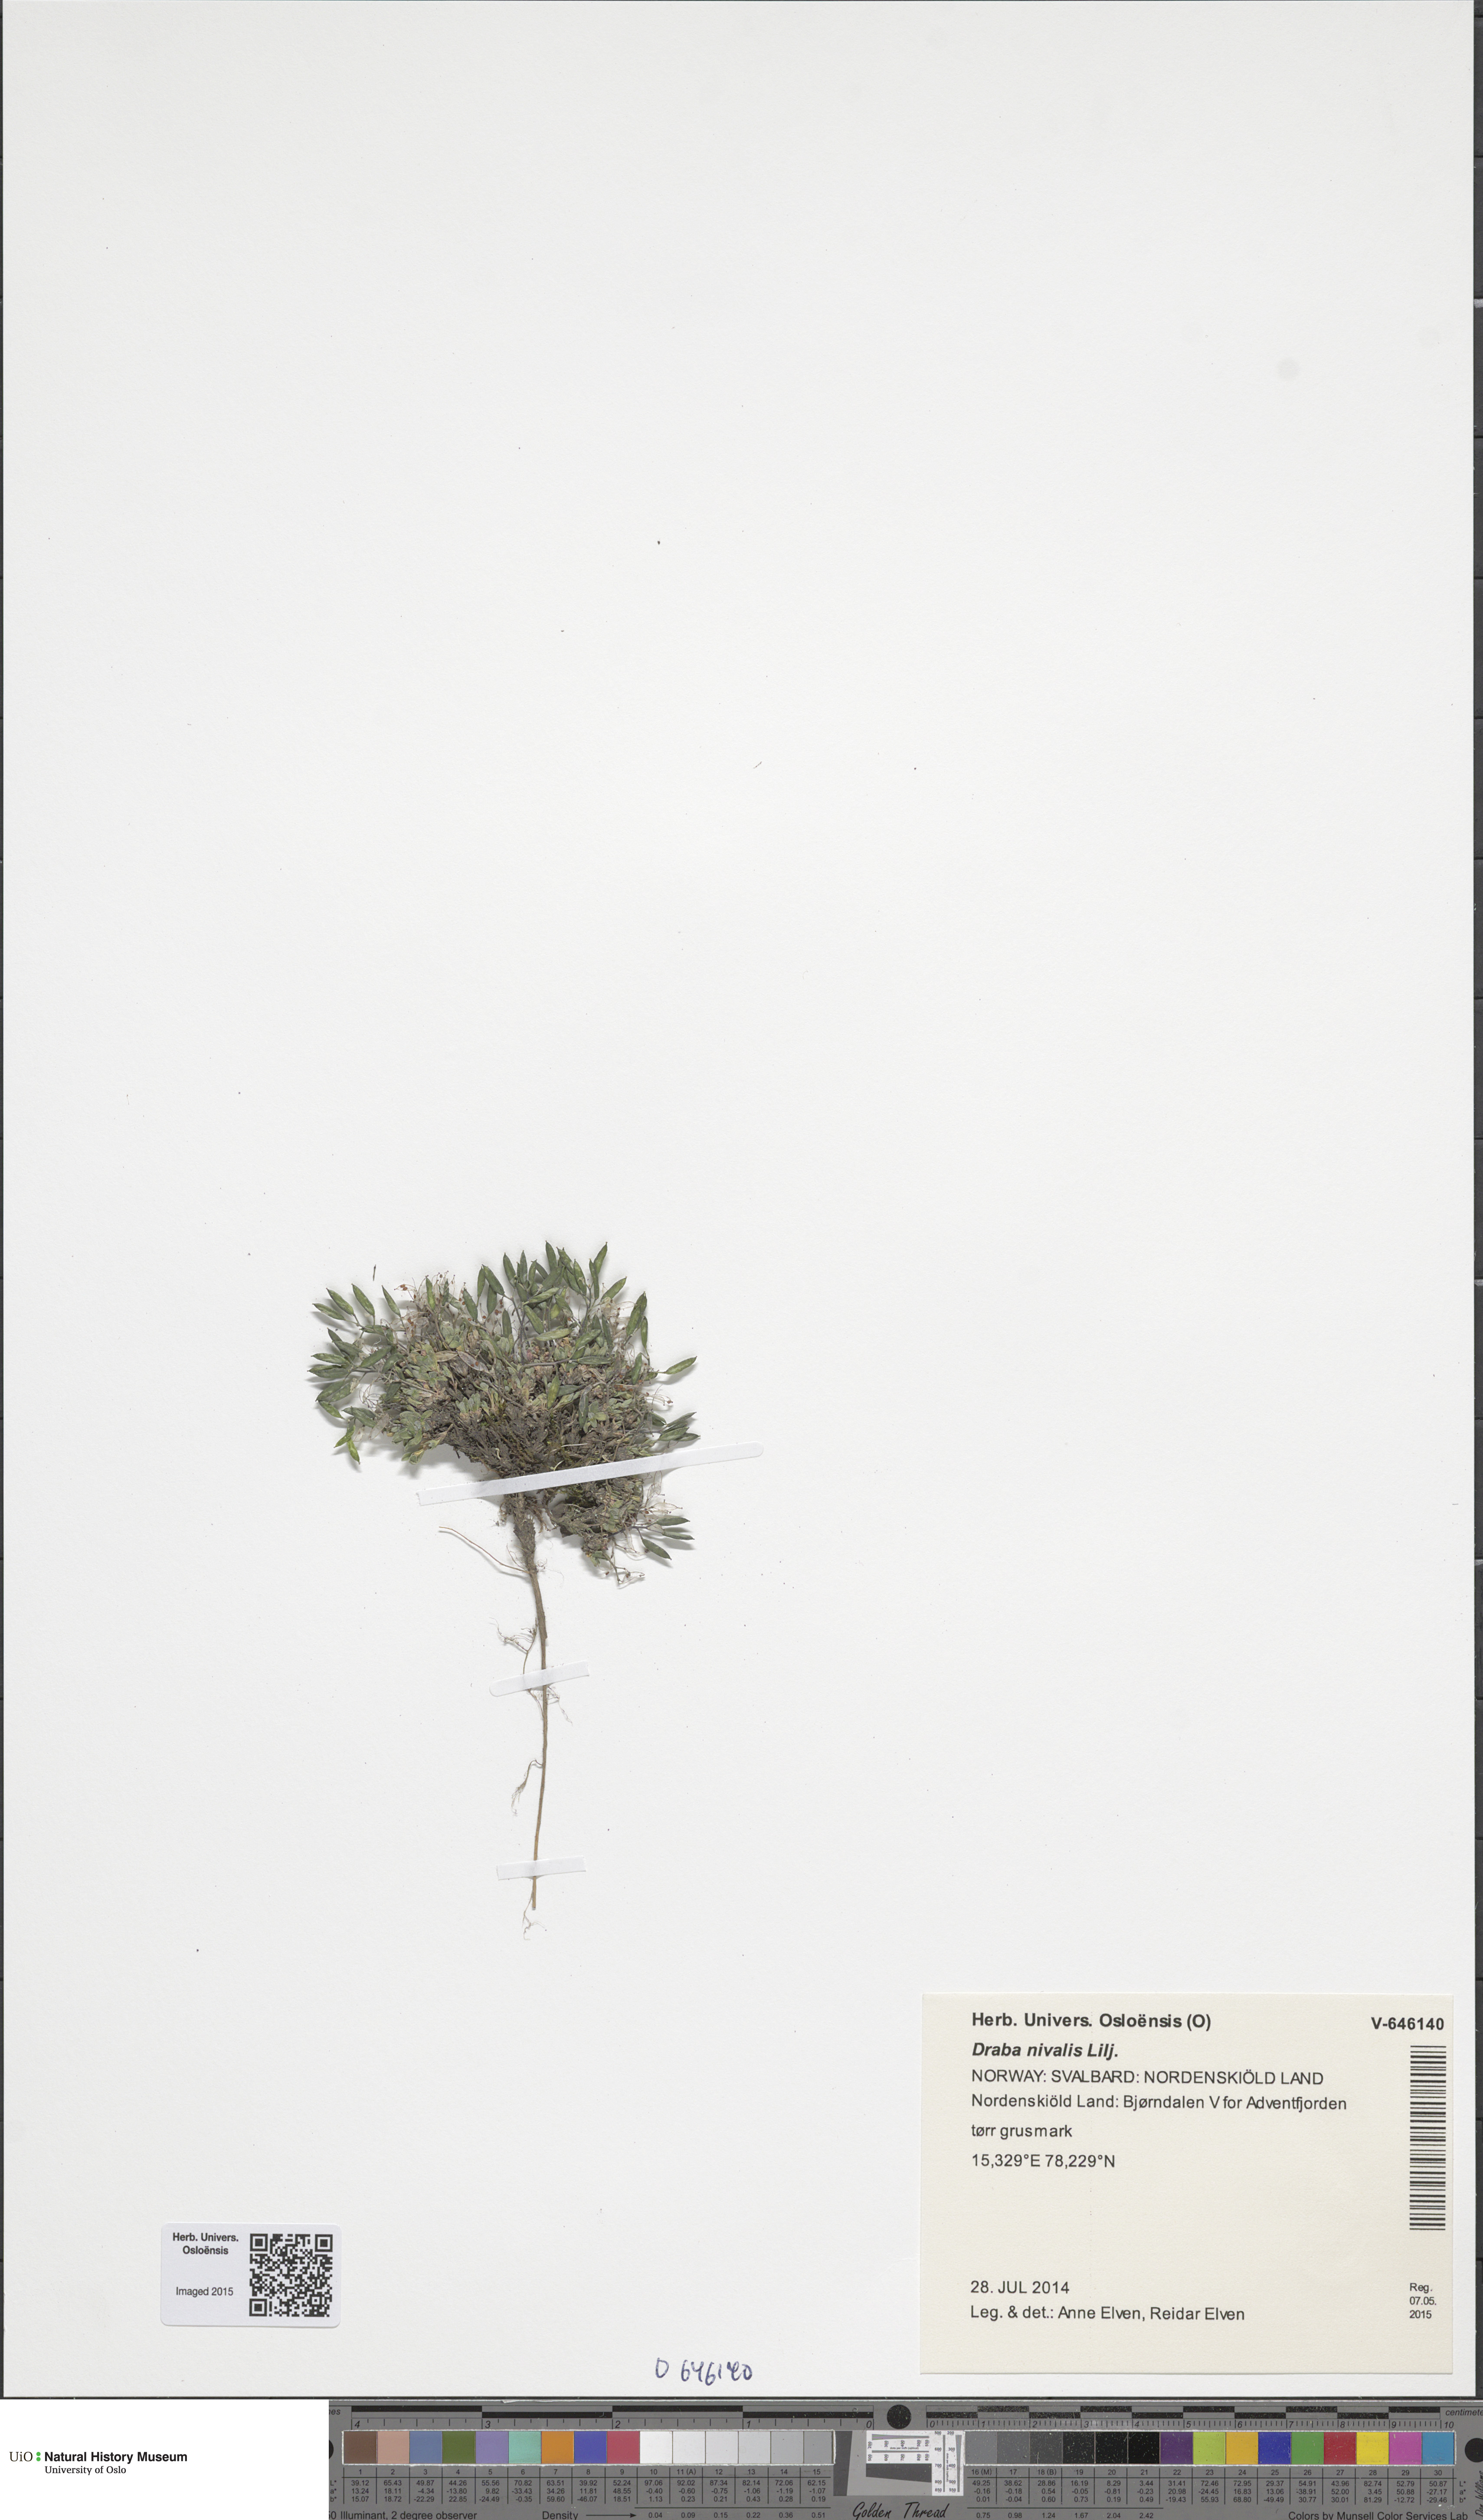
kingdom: Plantae
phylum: Tracheophyta
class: Magnoliopsida
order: Brassicales
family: Brassicaceae
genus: Draba
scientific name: Draba nivalis
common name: Snow draba
